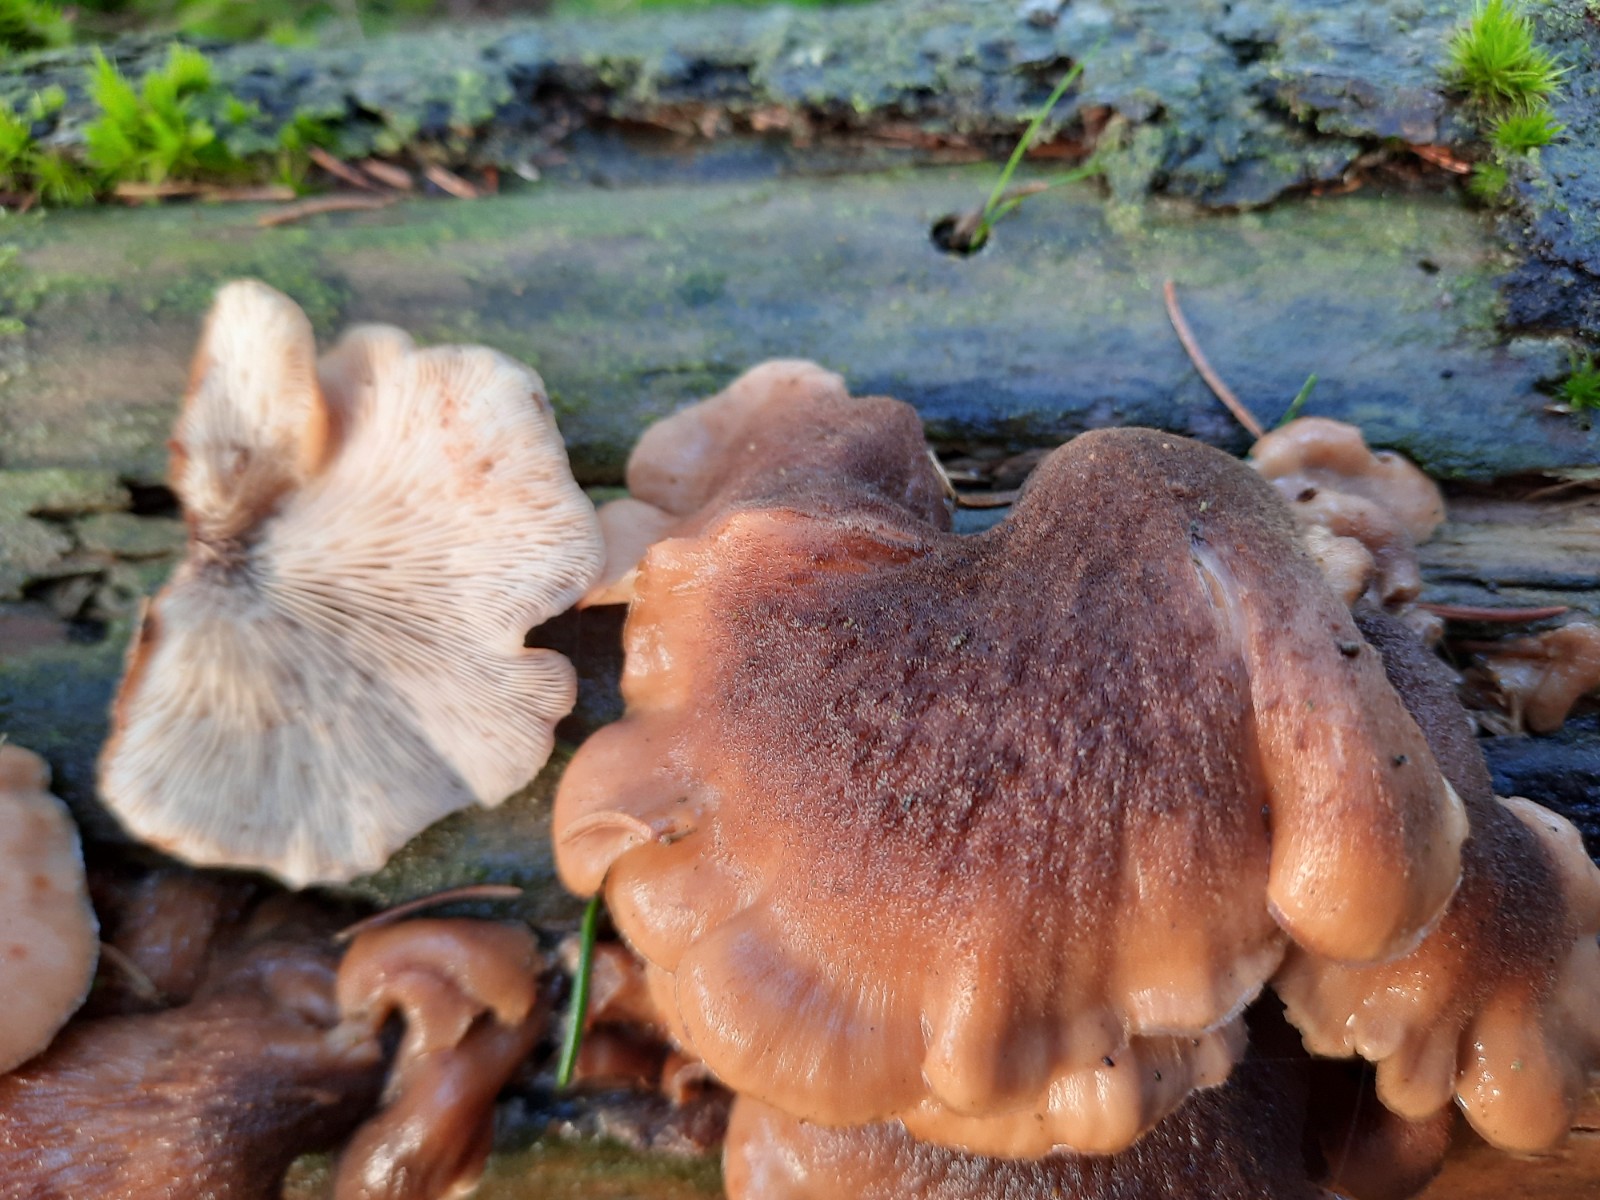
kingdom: Fungi
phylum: Basidiomycota
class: Agaricomycetes
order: Russulales
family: Auriscalpiaceae
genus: Lentinellus
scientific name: Lentinellus ursinus
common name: børstehåret savbladhat
